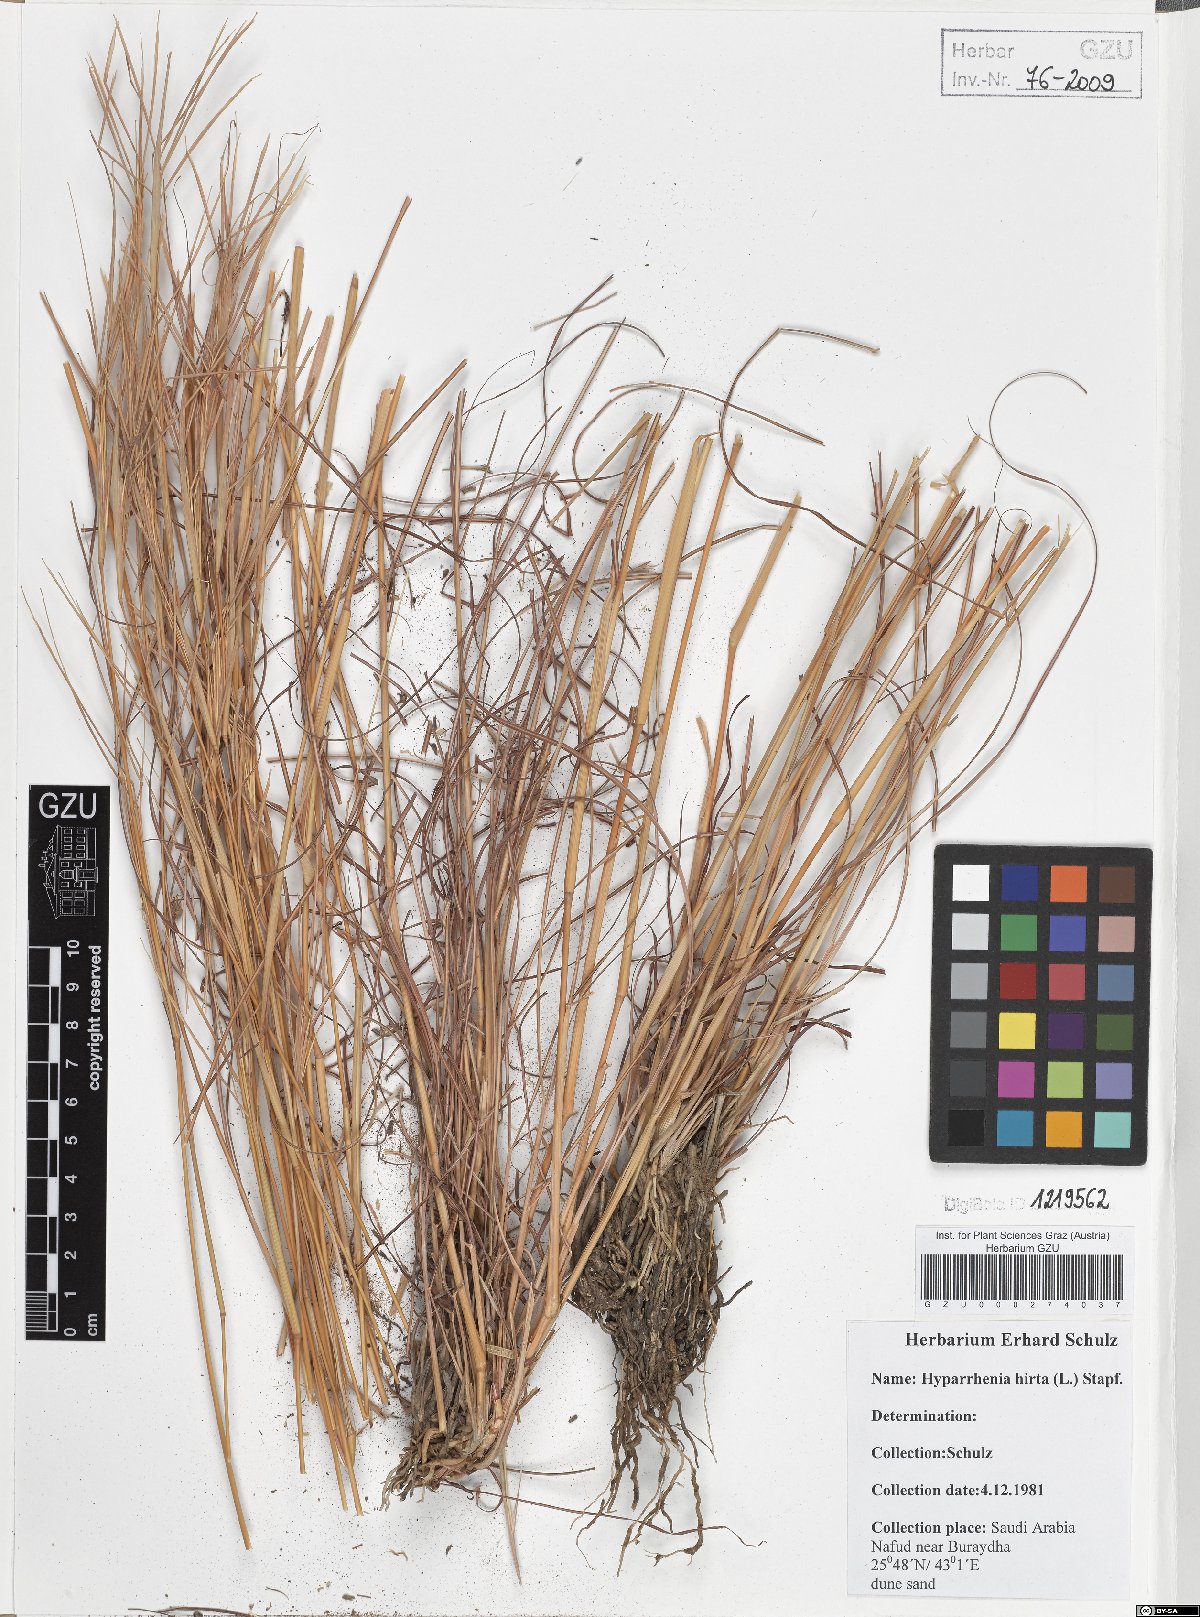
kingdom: Plantae
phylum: Tracheophyta
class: Liliopsida
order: Poales
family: Poaceae
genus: Hyparrhenia
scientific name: Hyparrhenia hirta
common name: Thatching grass
